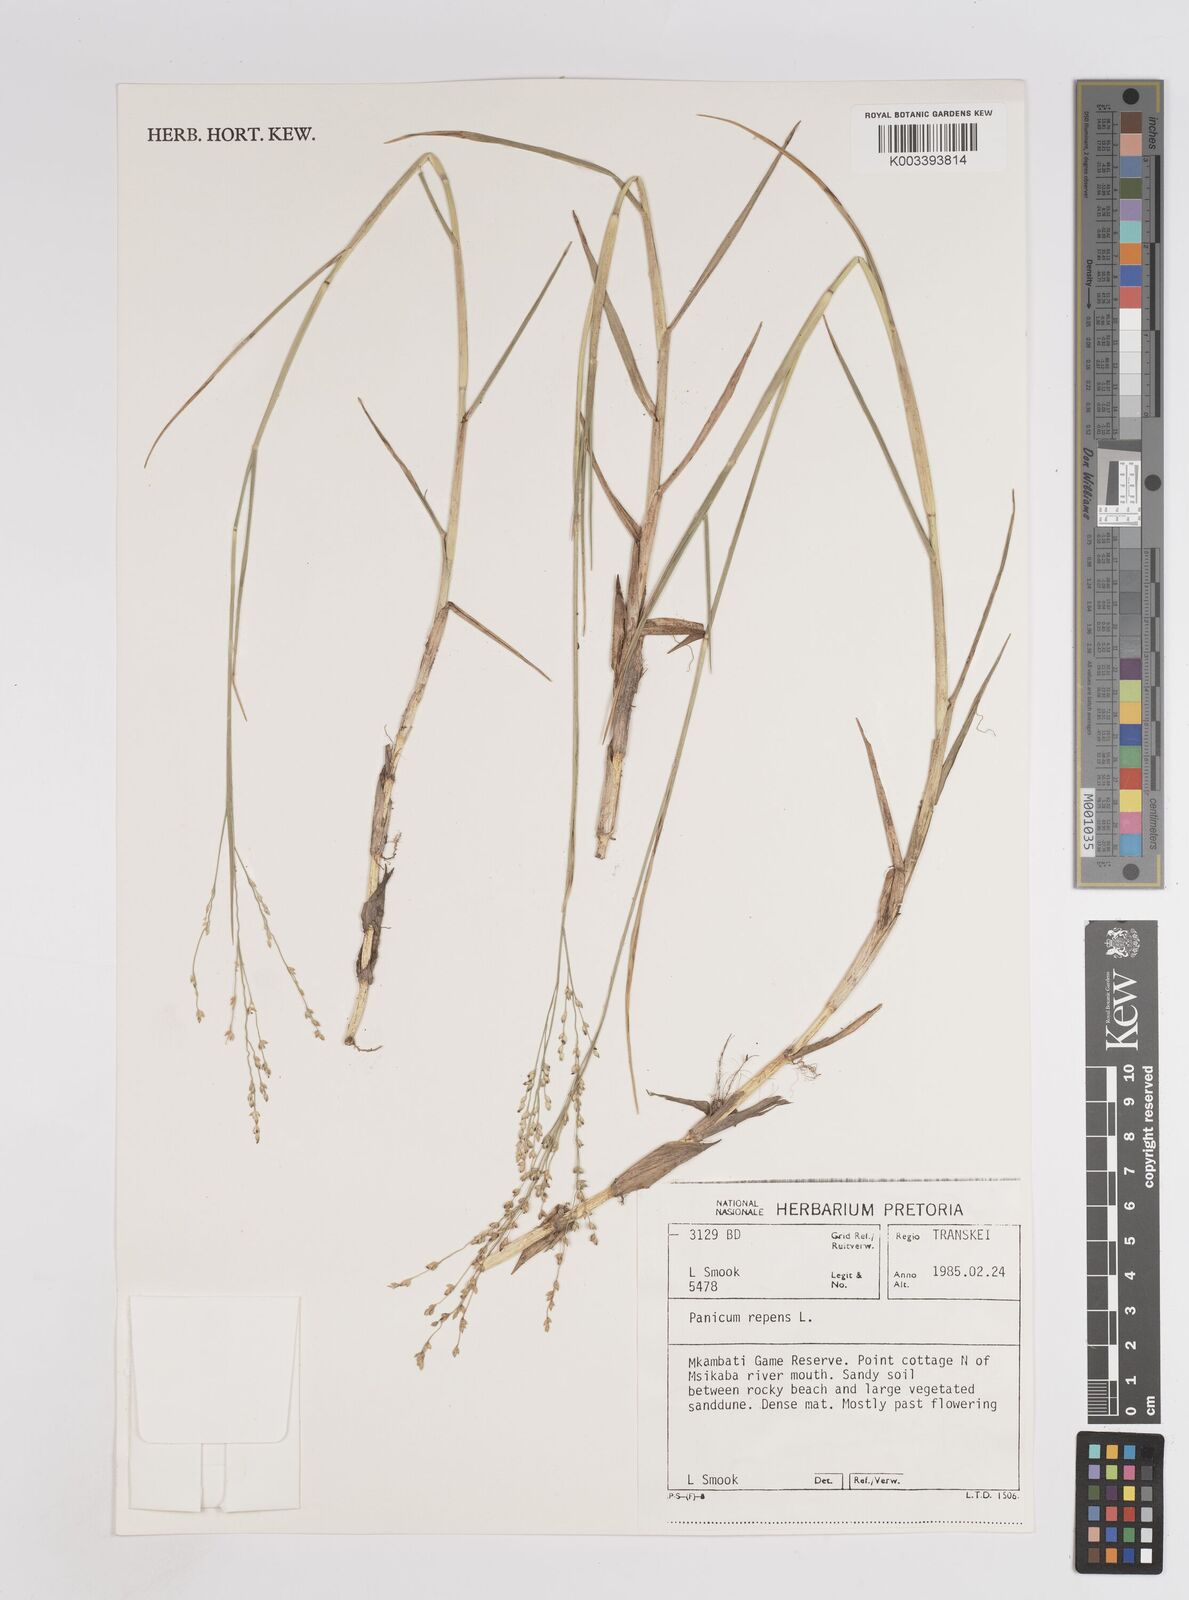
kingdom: Plantae
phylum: Tracheophyta
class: Liliopsida
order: Poales
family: Poaceae
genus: Panicum
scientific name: Panicum repens
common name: Torpedo grass
